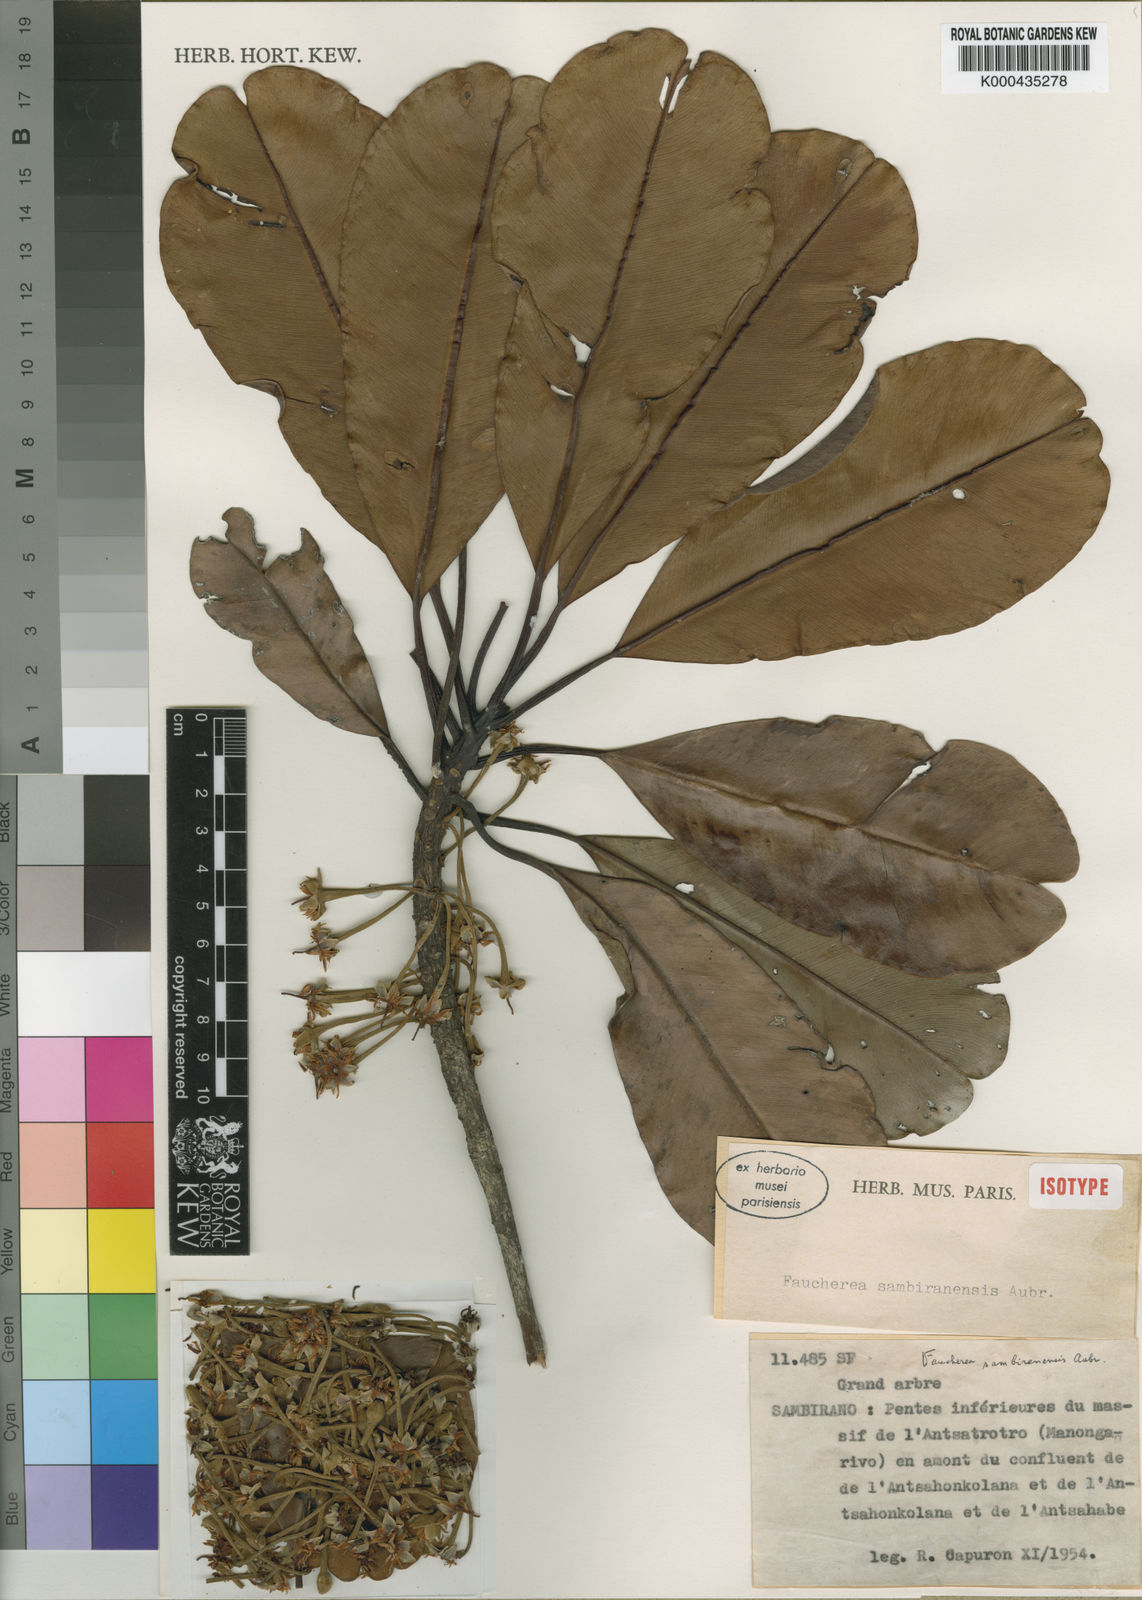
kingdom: Plantae
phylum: Tracheophyta
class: Magnoliopsida
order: Ericales
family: Sapotaceae
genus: Faucherea
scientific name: Faucherea sambiranensis
